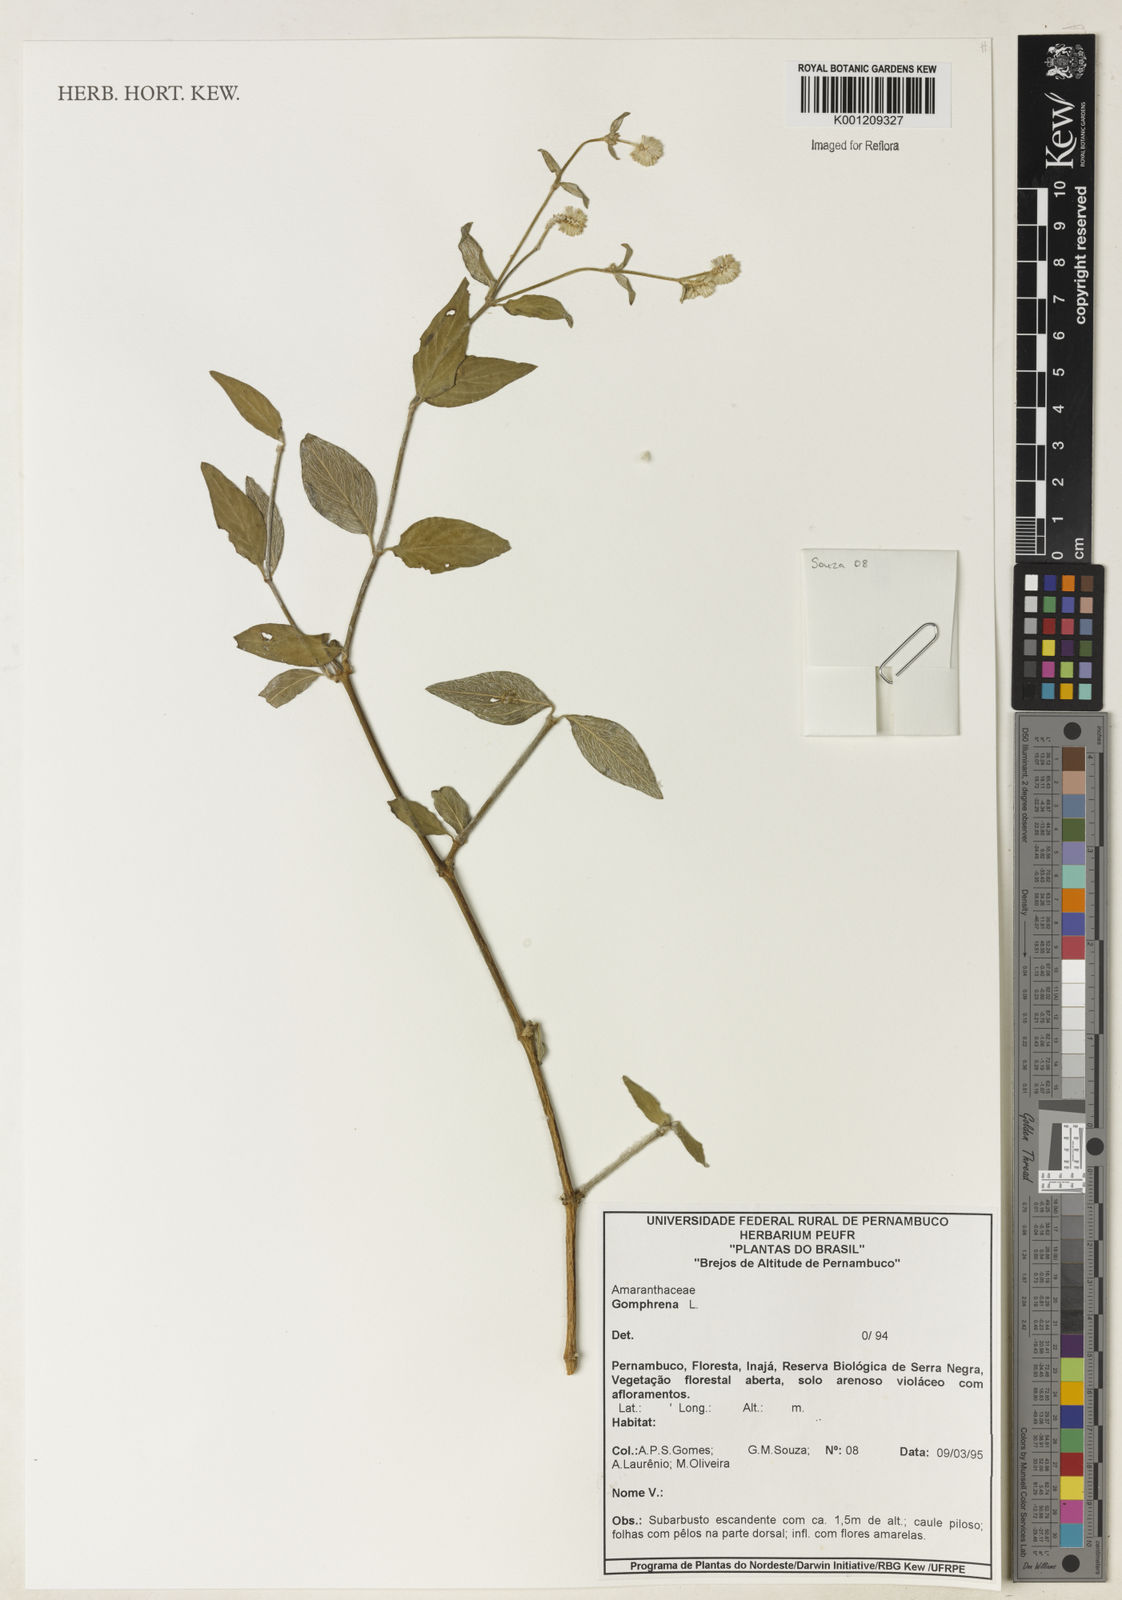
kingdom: Plantae
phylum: Tracheophyta
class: Magnoliopsida
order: Caryophyllales
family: Amaranthaceae
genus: Gomphrena
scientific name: Gomphrena
